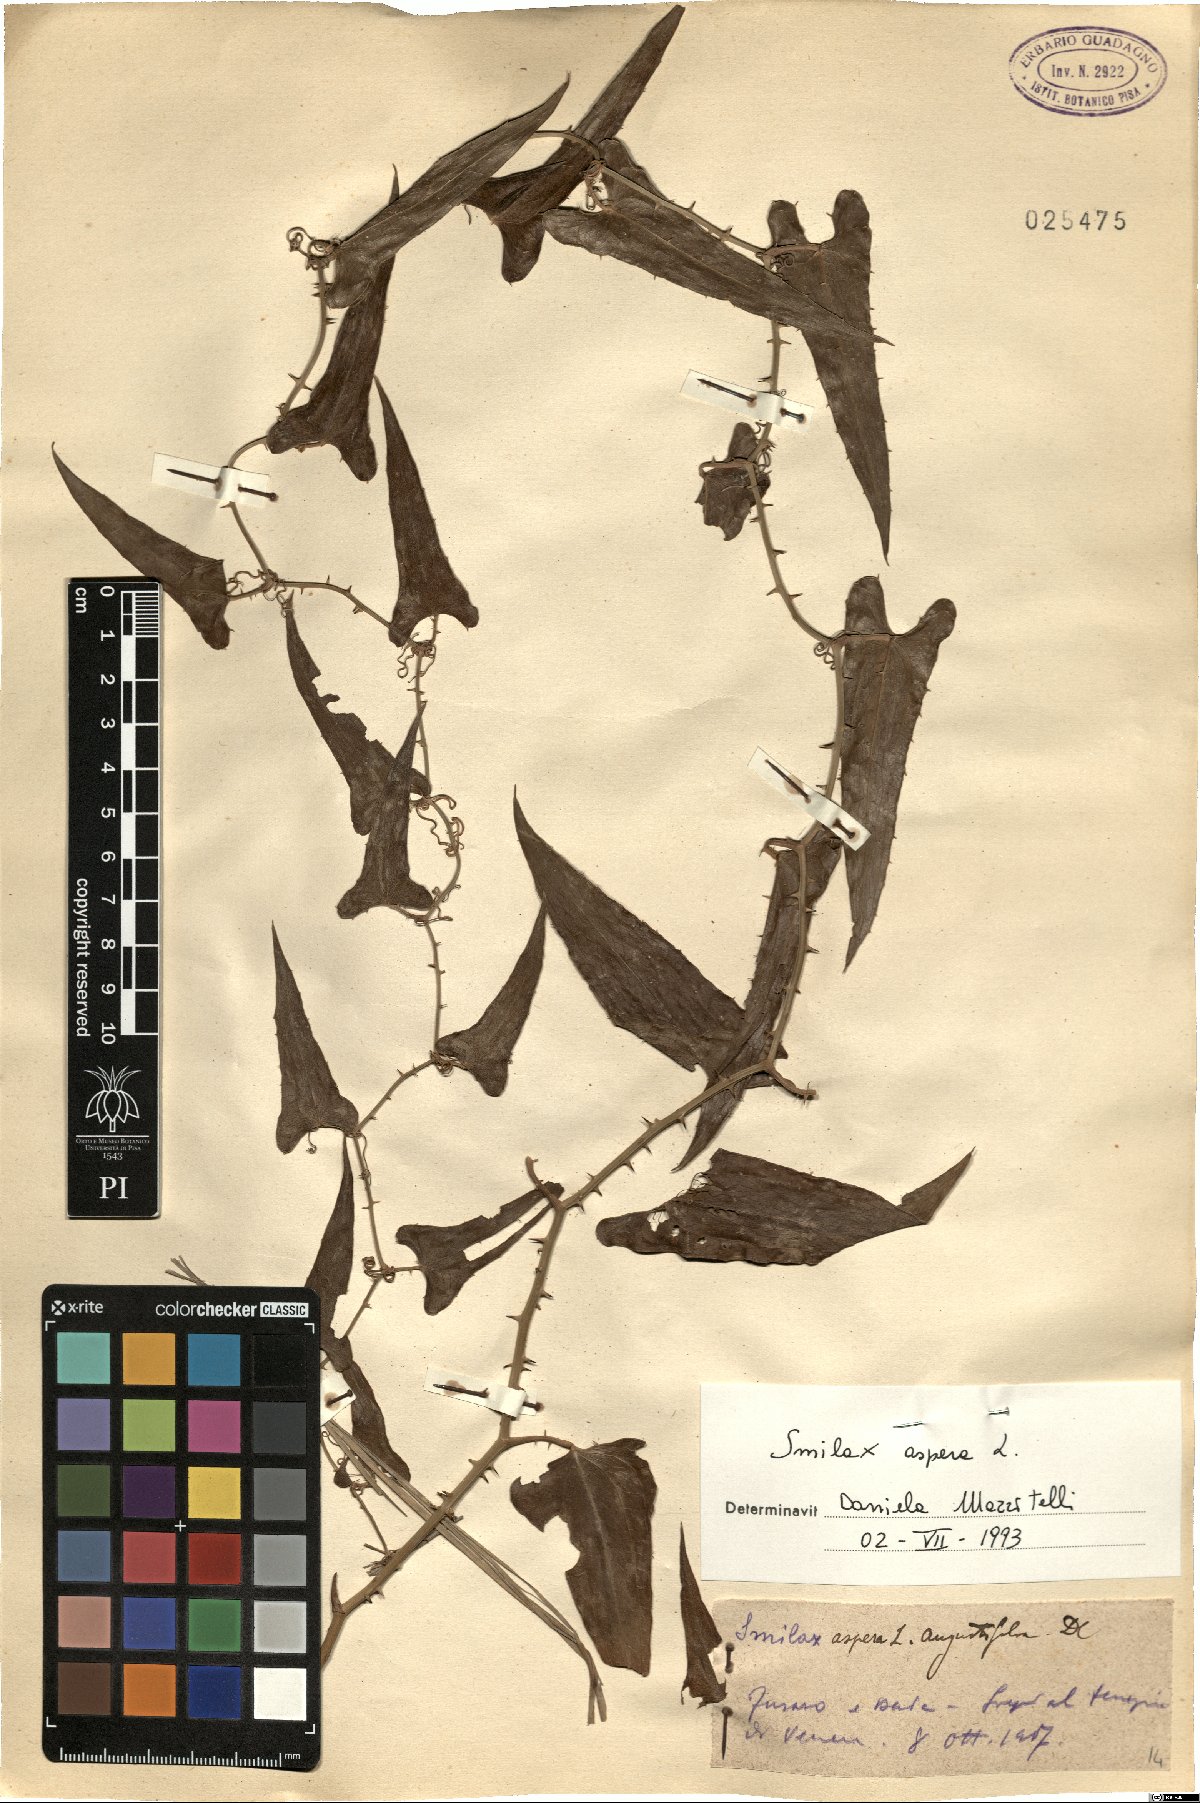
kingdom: Plantae
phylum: Tracheophyta
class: Liliopsida
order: Liliales
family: Smilacaceae
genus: Smilax
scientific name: Smilax aspera
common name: Common smilax
